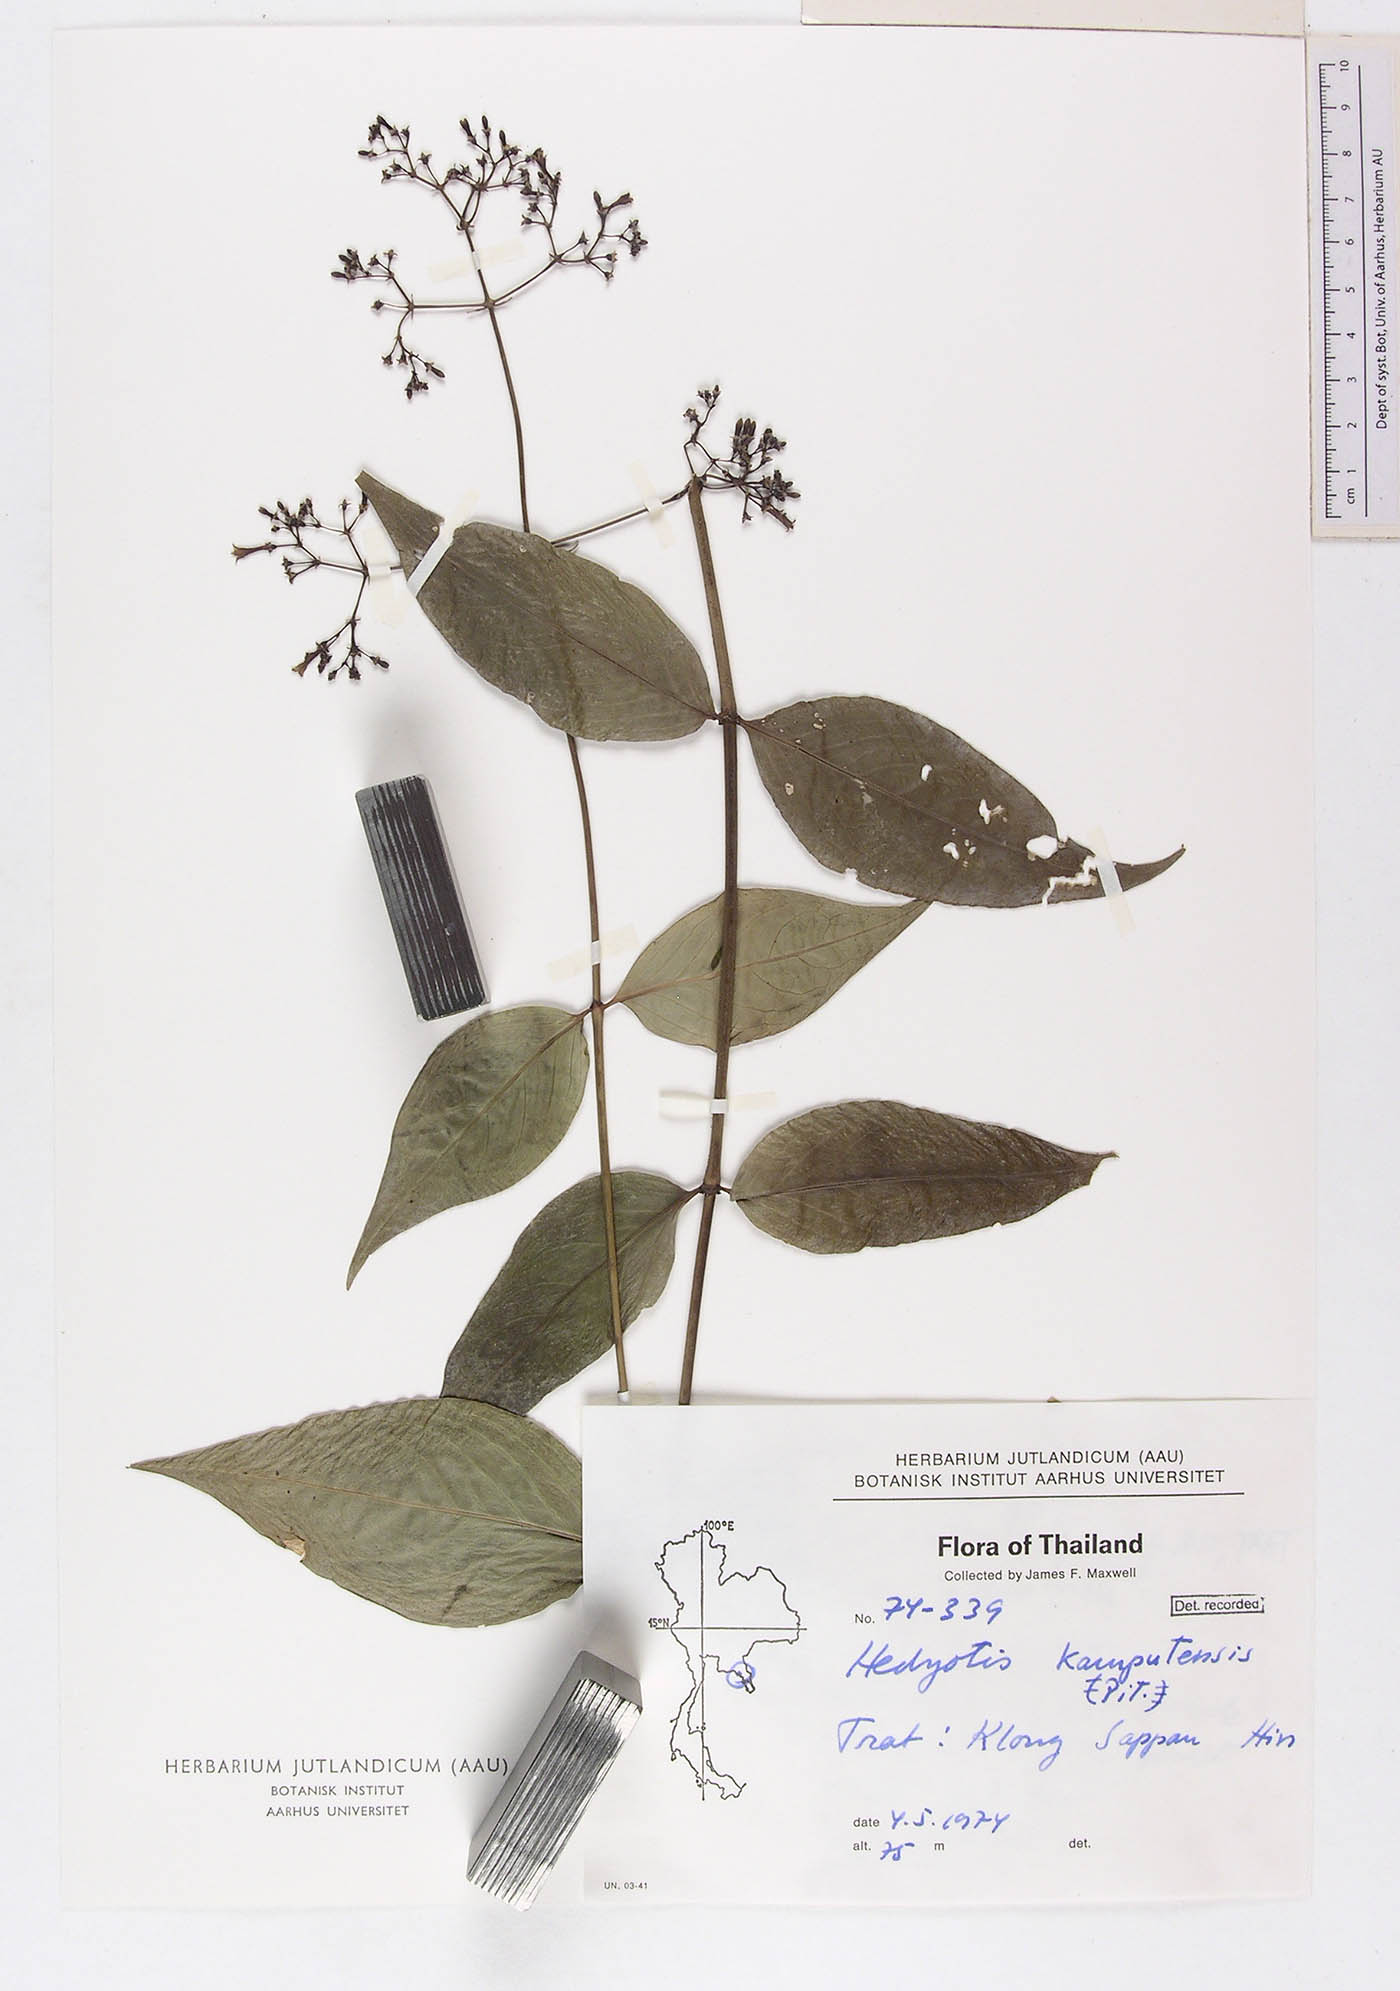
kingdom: Plantae
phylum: Tracheophyta
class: Magnoliopsida
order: Gentianales
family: Rubiaceae
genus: Hedyotis
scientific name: Hedyotis kamputensis
